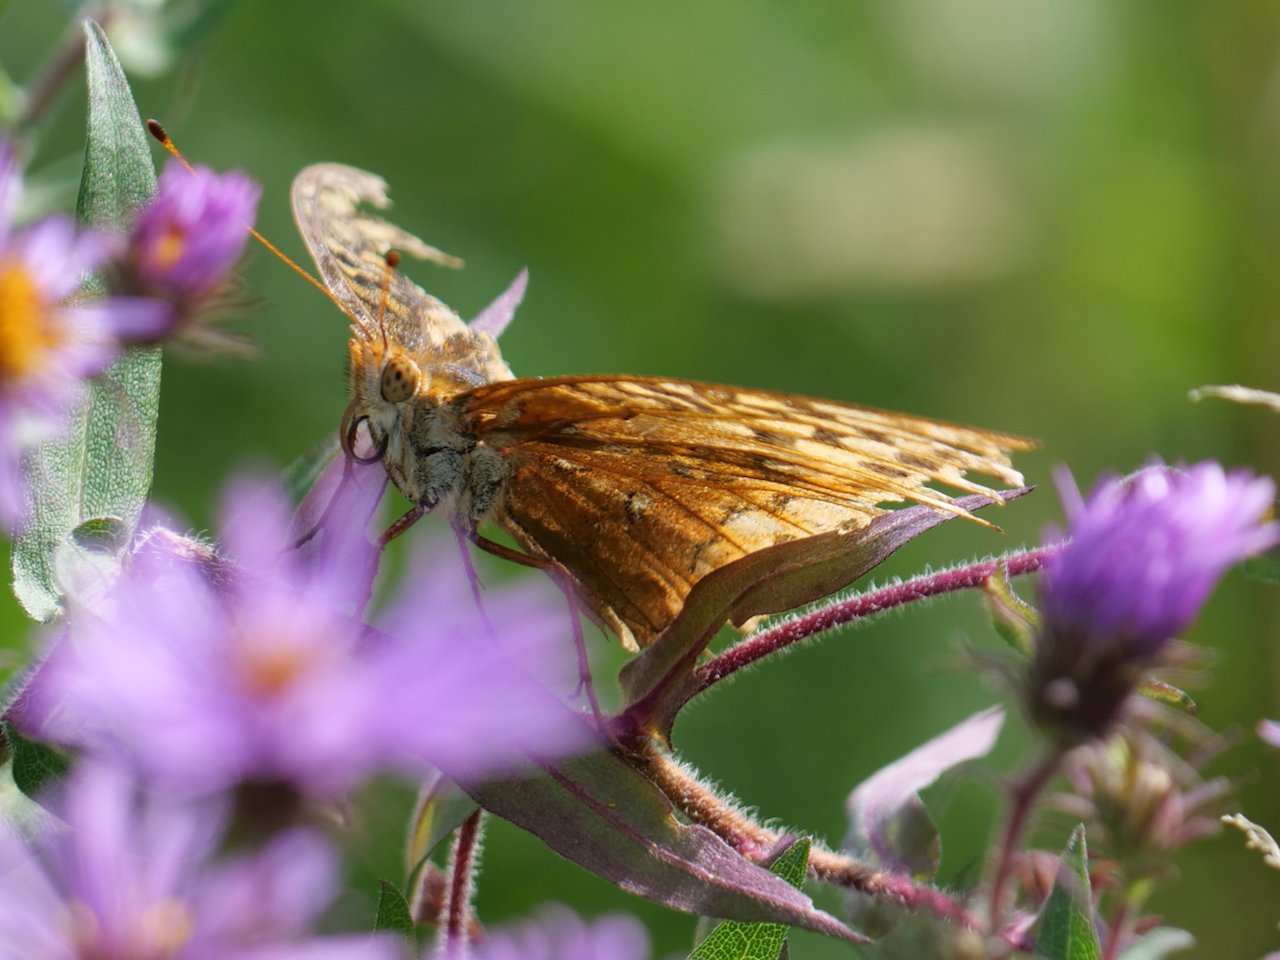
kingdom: Animalia
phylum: Arthropoda
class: Insecta
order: Lepidoptera
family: Nymphalidae
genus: Speyeria
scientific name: Speyeria cybele
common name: Great Spangled Fritillary
